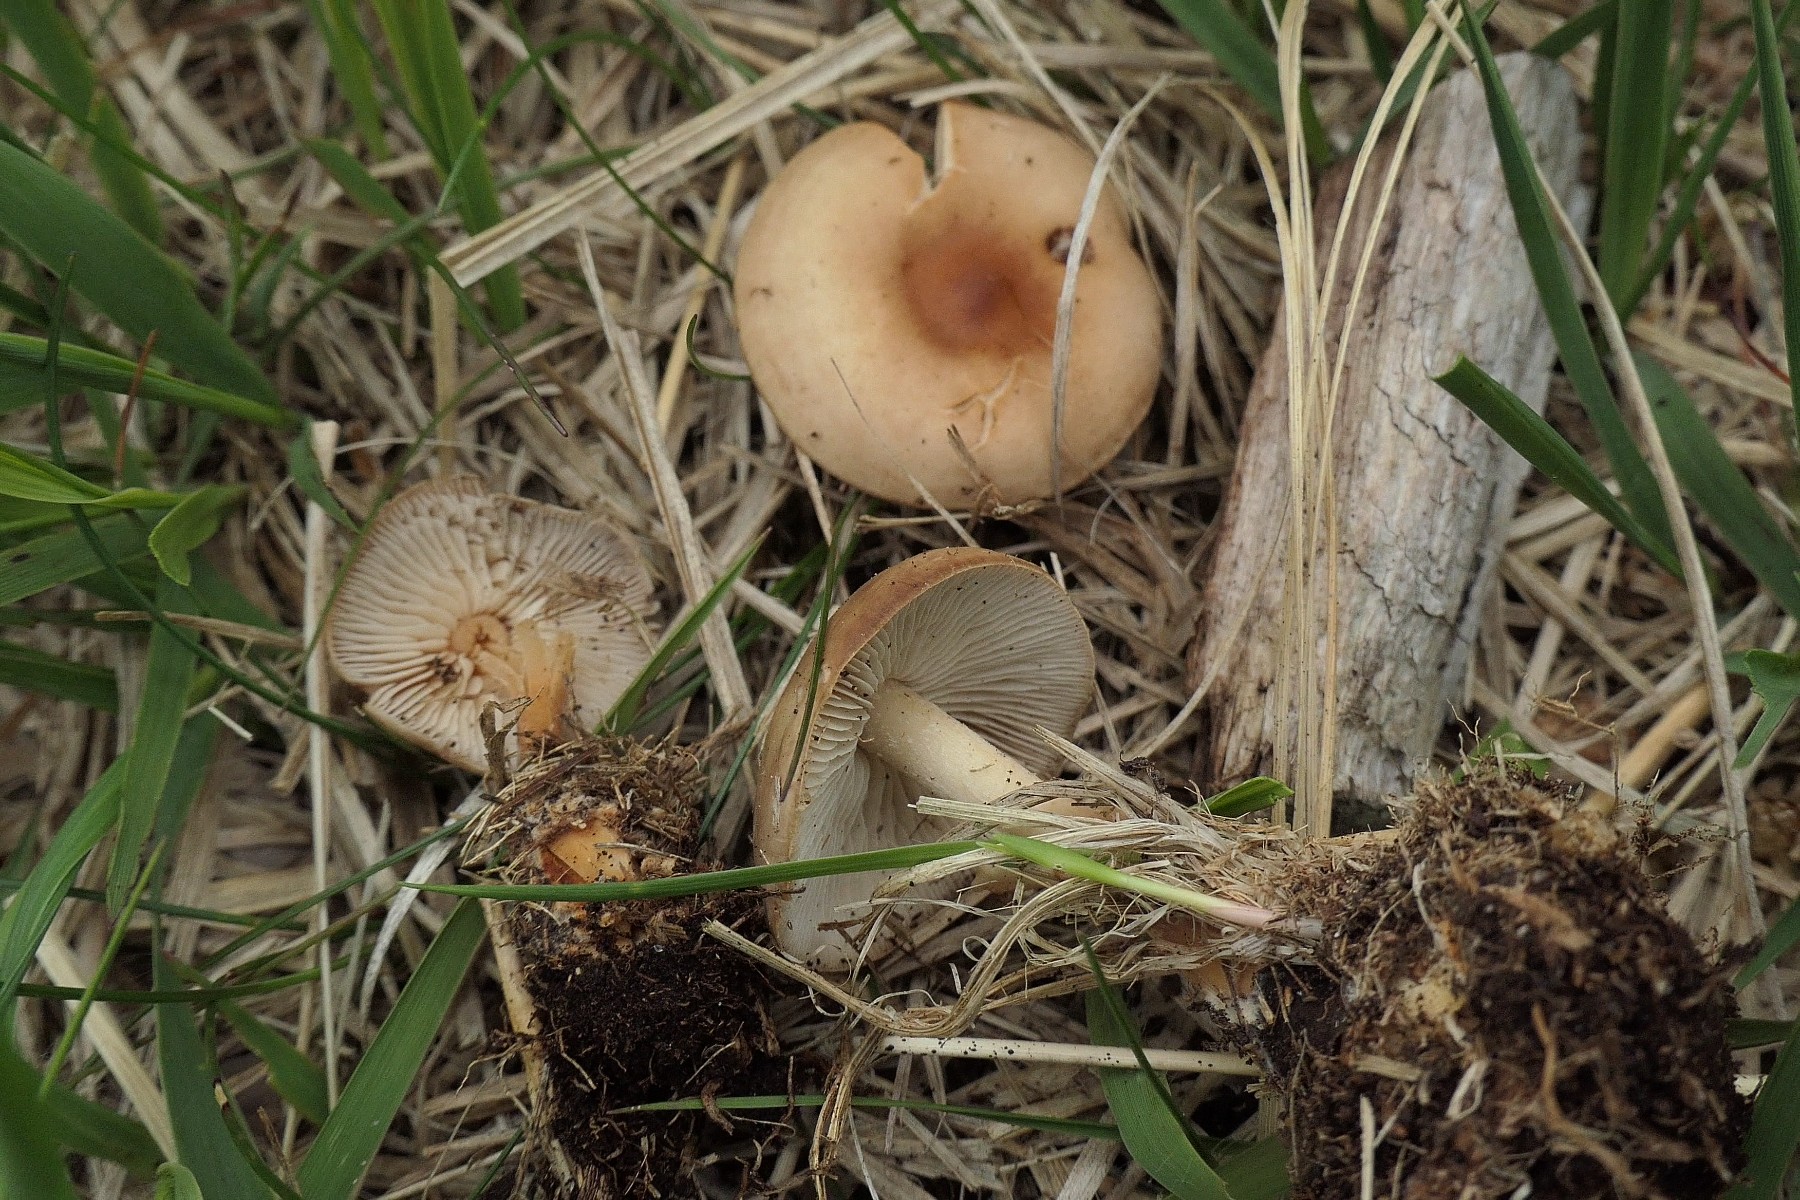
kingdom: Fungi
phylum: Basidiomycota
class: Agaricomycetes
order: Agaricales
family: Omphalotaceae
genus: Gymnopus
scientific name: Gymnopus ocior
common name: mørk fladhat
